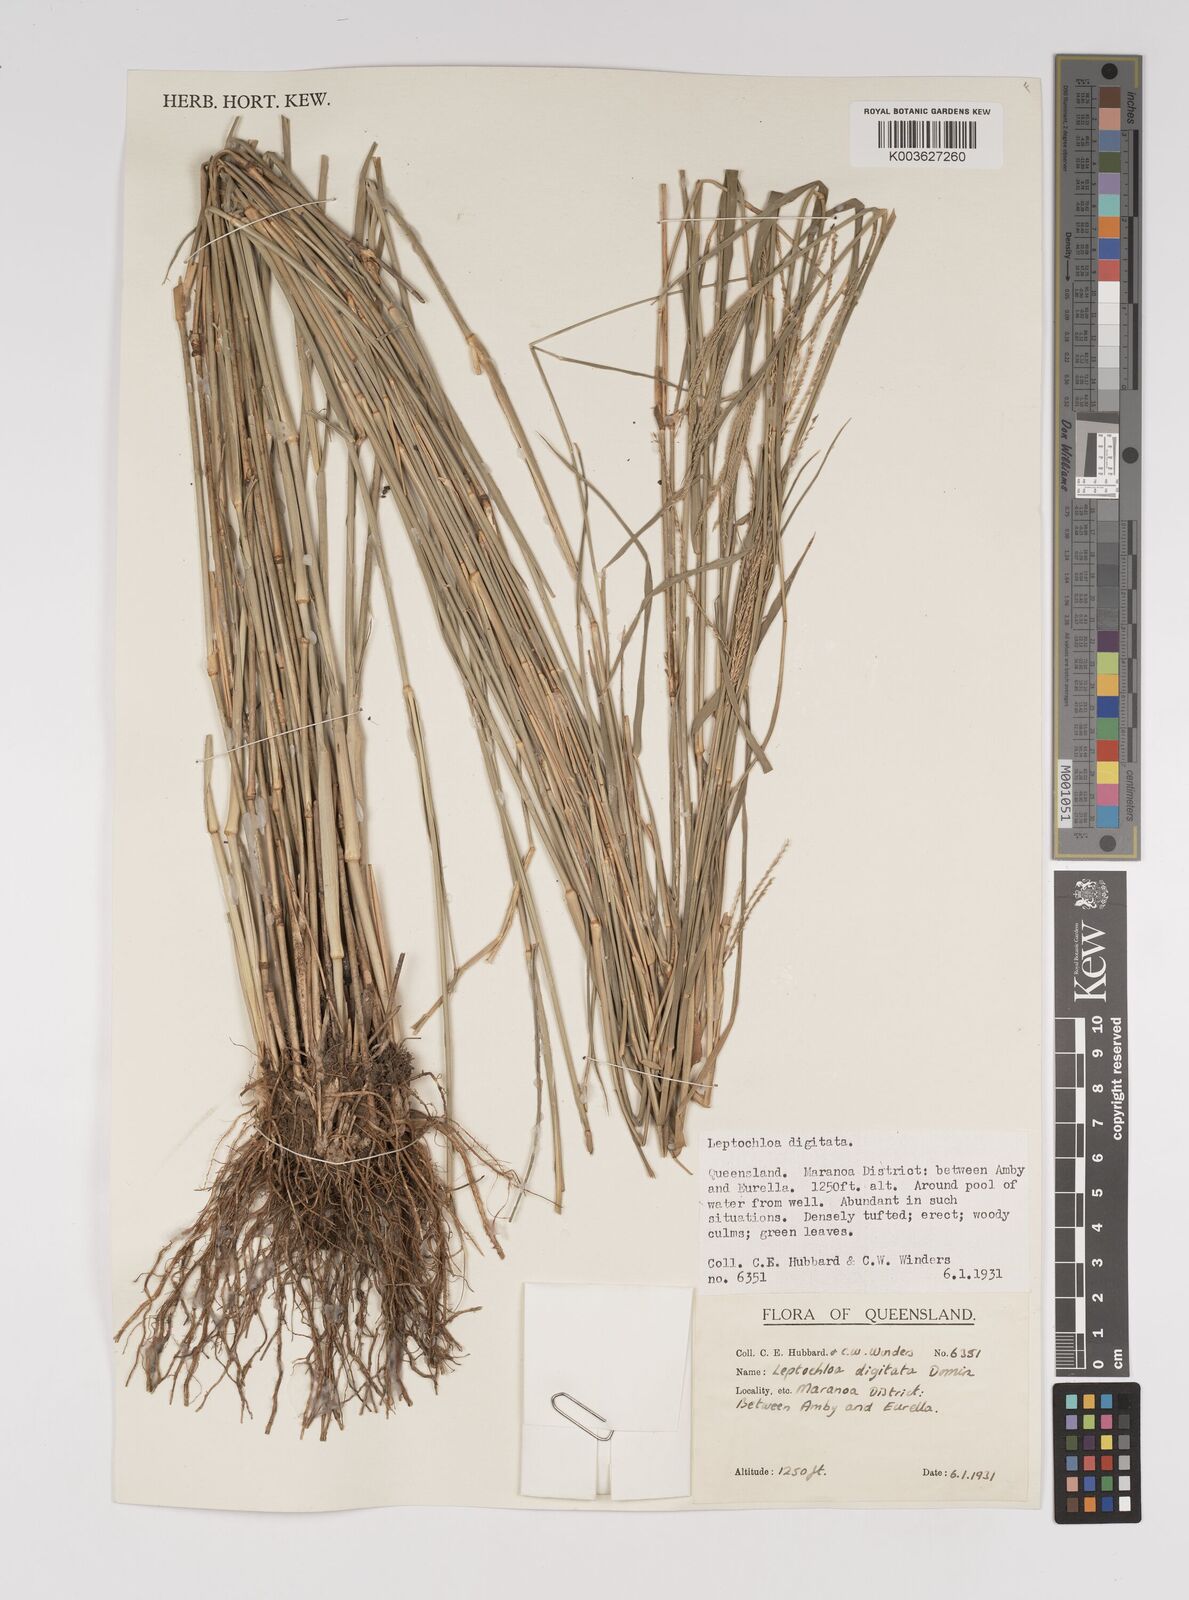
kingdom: Plantae
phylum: Tracheophyta
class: Liliopsida
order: Poales
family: Poaceae
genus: Leptochloa
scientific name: Leptochloa digitata
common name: Finger sprangletop
